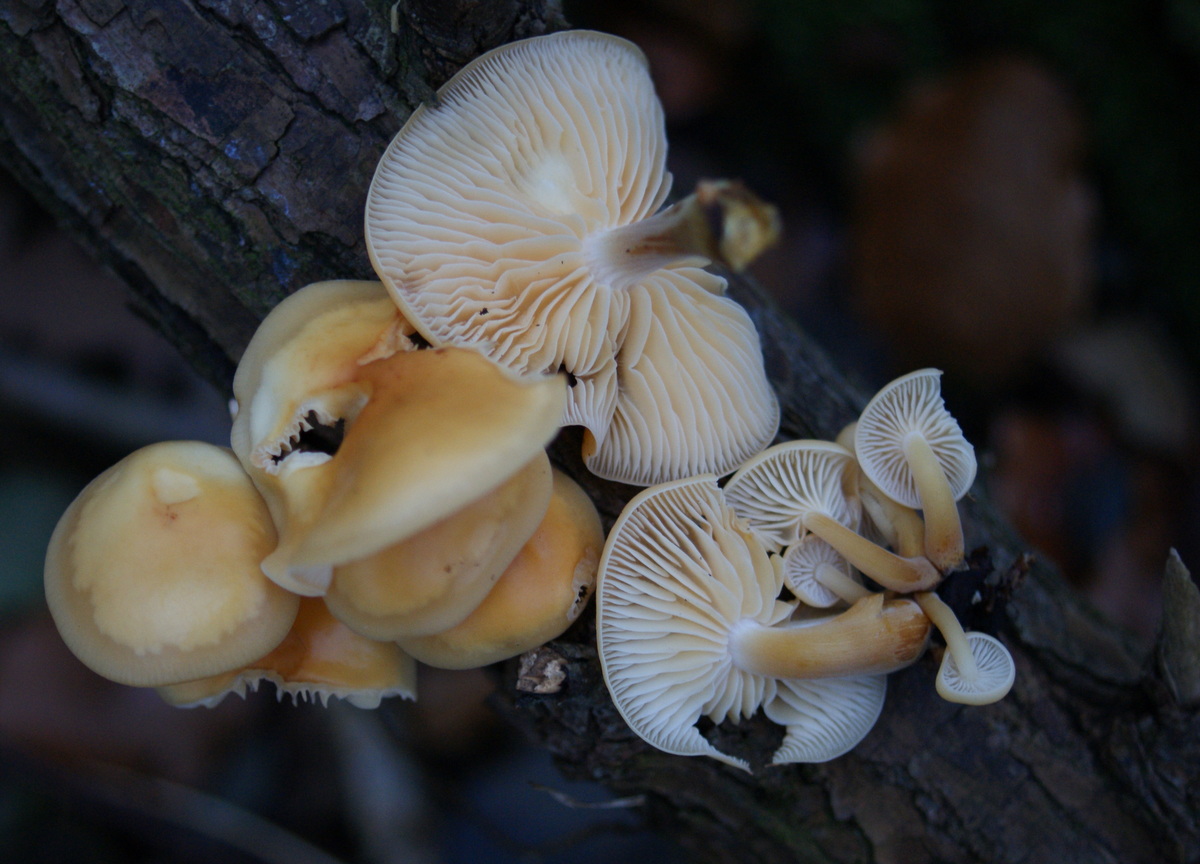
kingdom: Fungi
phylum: Basidiomycota
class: Agaricomycetes
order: Agaricales
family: Physalacriaceae
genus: Flammulina
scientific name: Flammulina elastica
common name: pile-fløjlsfod
